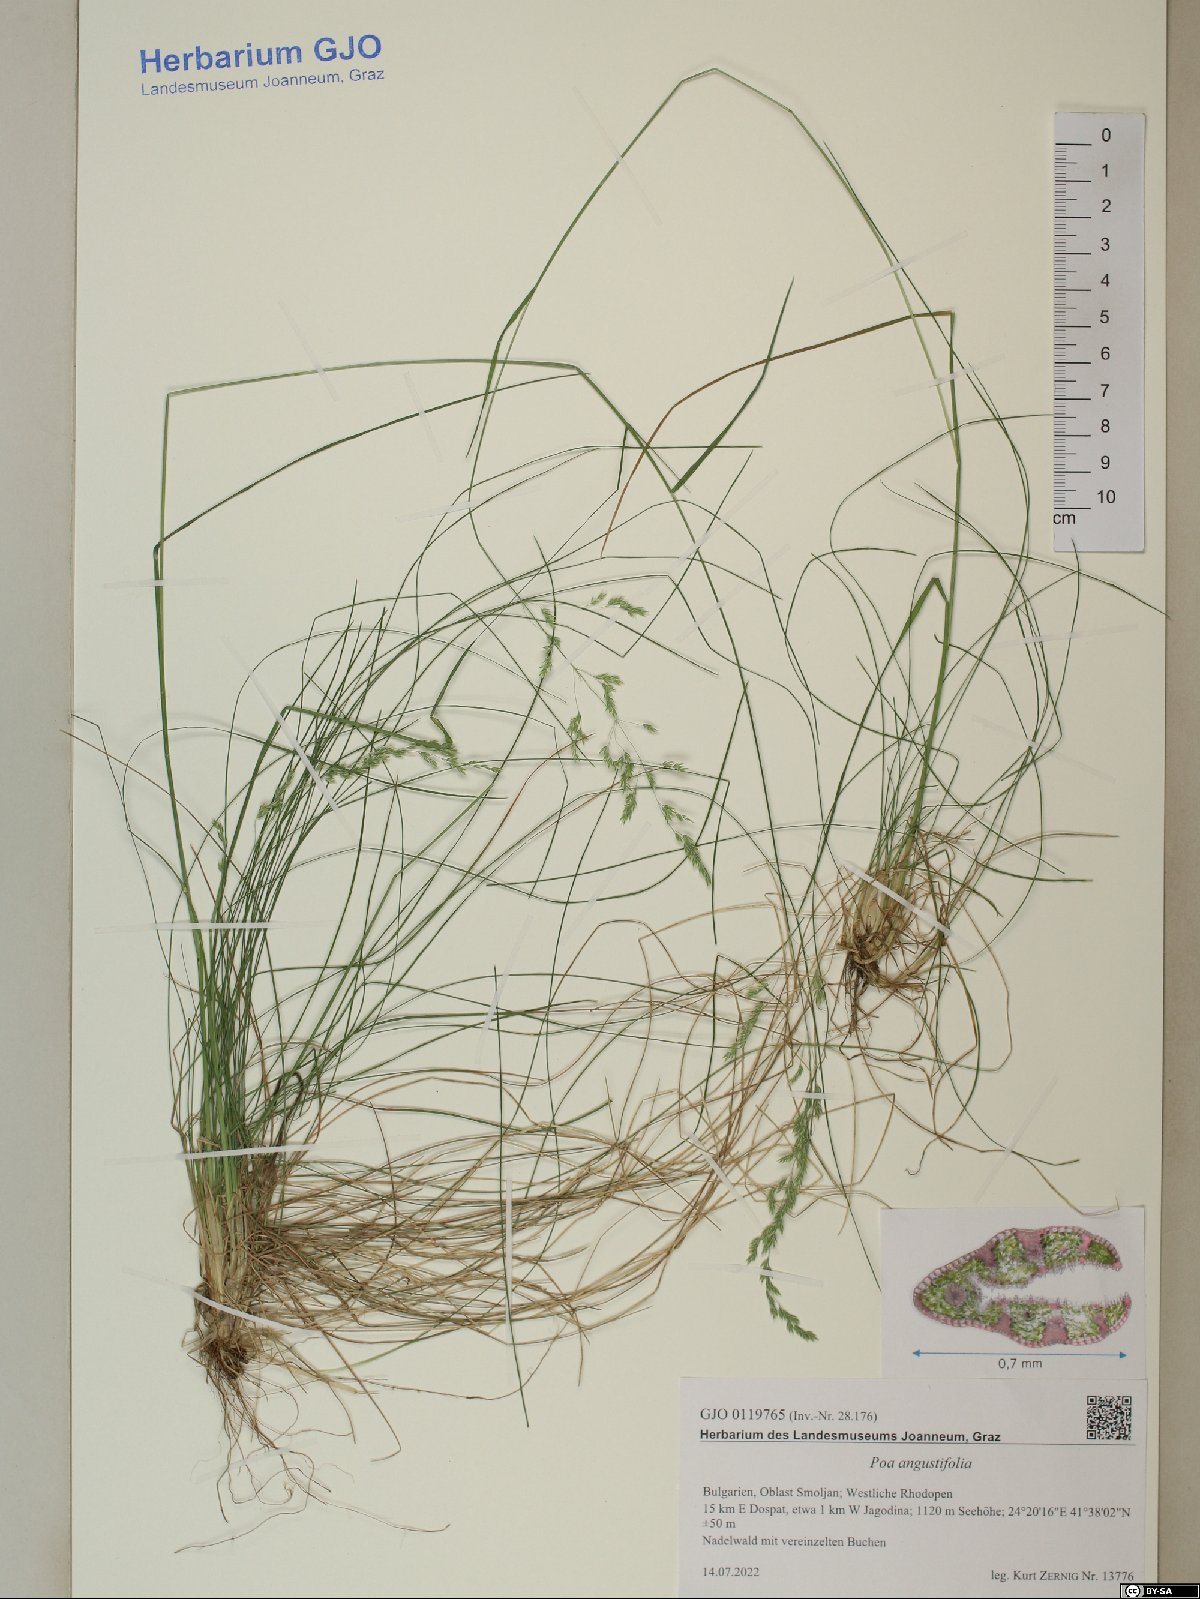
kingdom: Plantae
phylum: Tracheophyta
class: Liliopsida
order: Poales
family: Poaceae
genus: Poa
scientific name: Poa angustifolia
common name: Narrow-leaved meadow-grass
